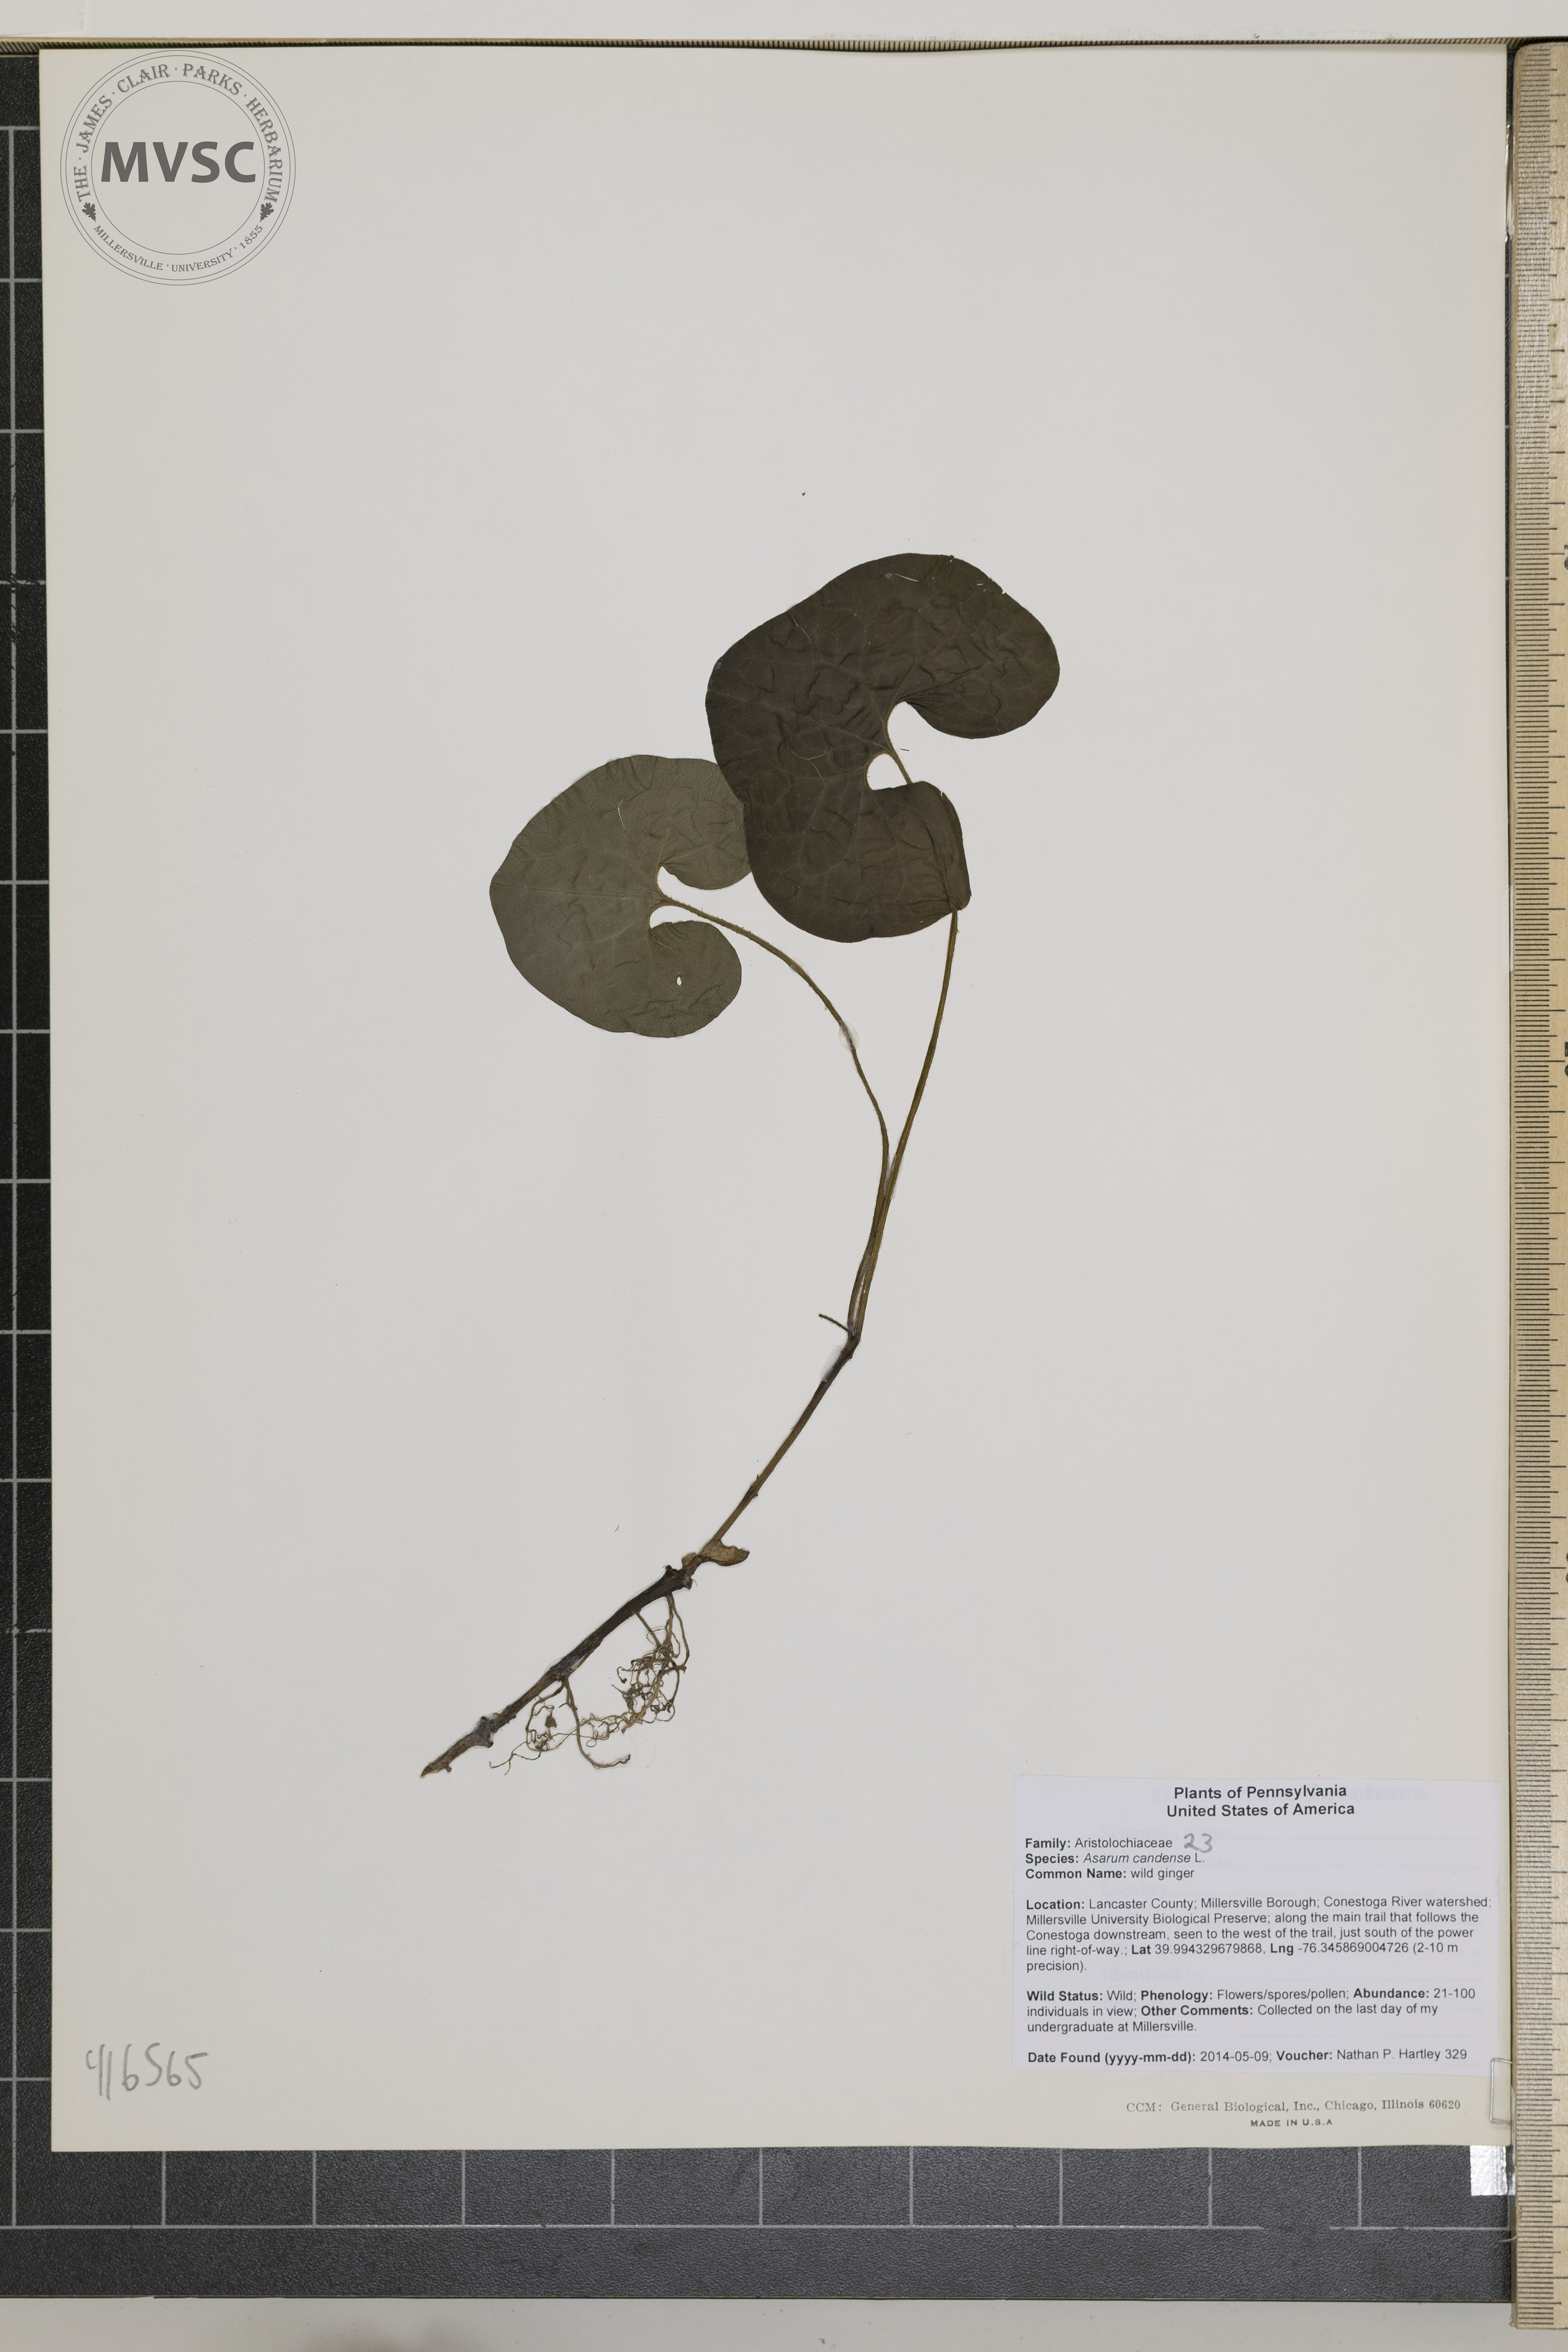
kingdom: Plantae
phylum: Tracheophyta
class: Magnoliopsida
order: Piperales
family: Aristolochiaceae
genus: Asarum
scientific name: Asarum canadense
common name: wild ginger
